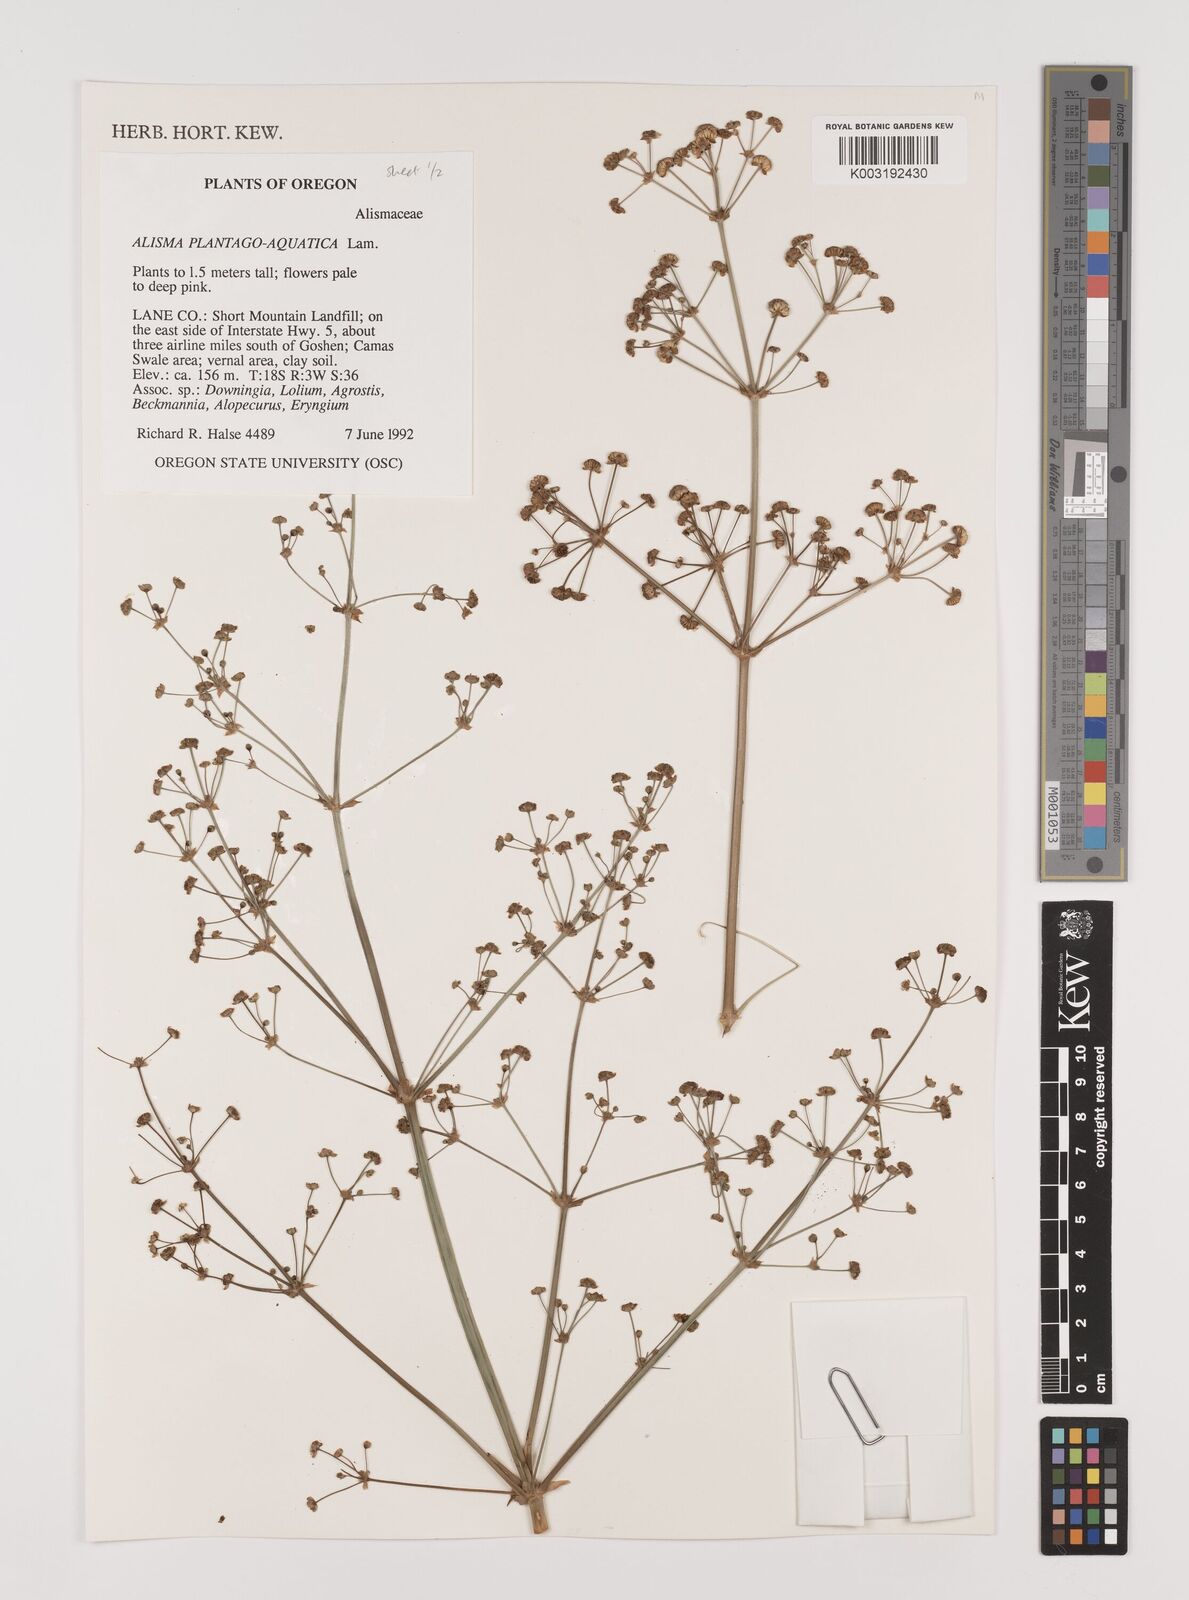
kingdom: Plantae
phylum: Tracheophyta
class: Liliopsida
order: Alismatales
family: Alismataceae
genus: Alisma
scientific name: Alisma plantago-aquatica
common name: Water-plantain
